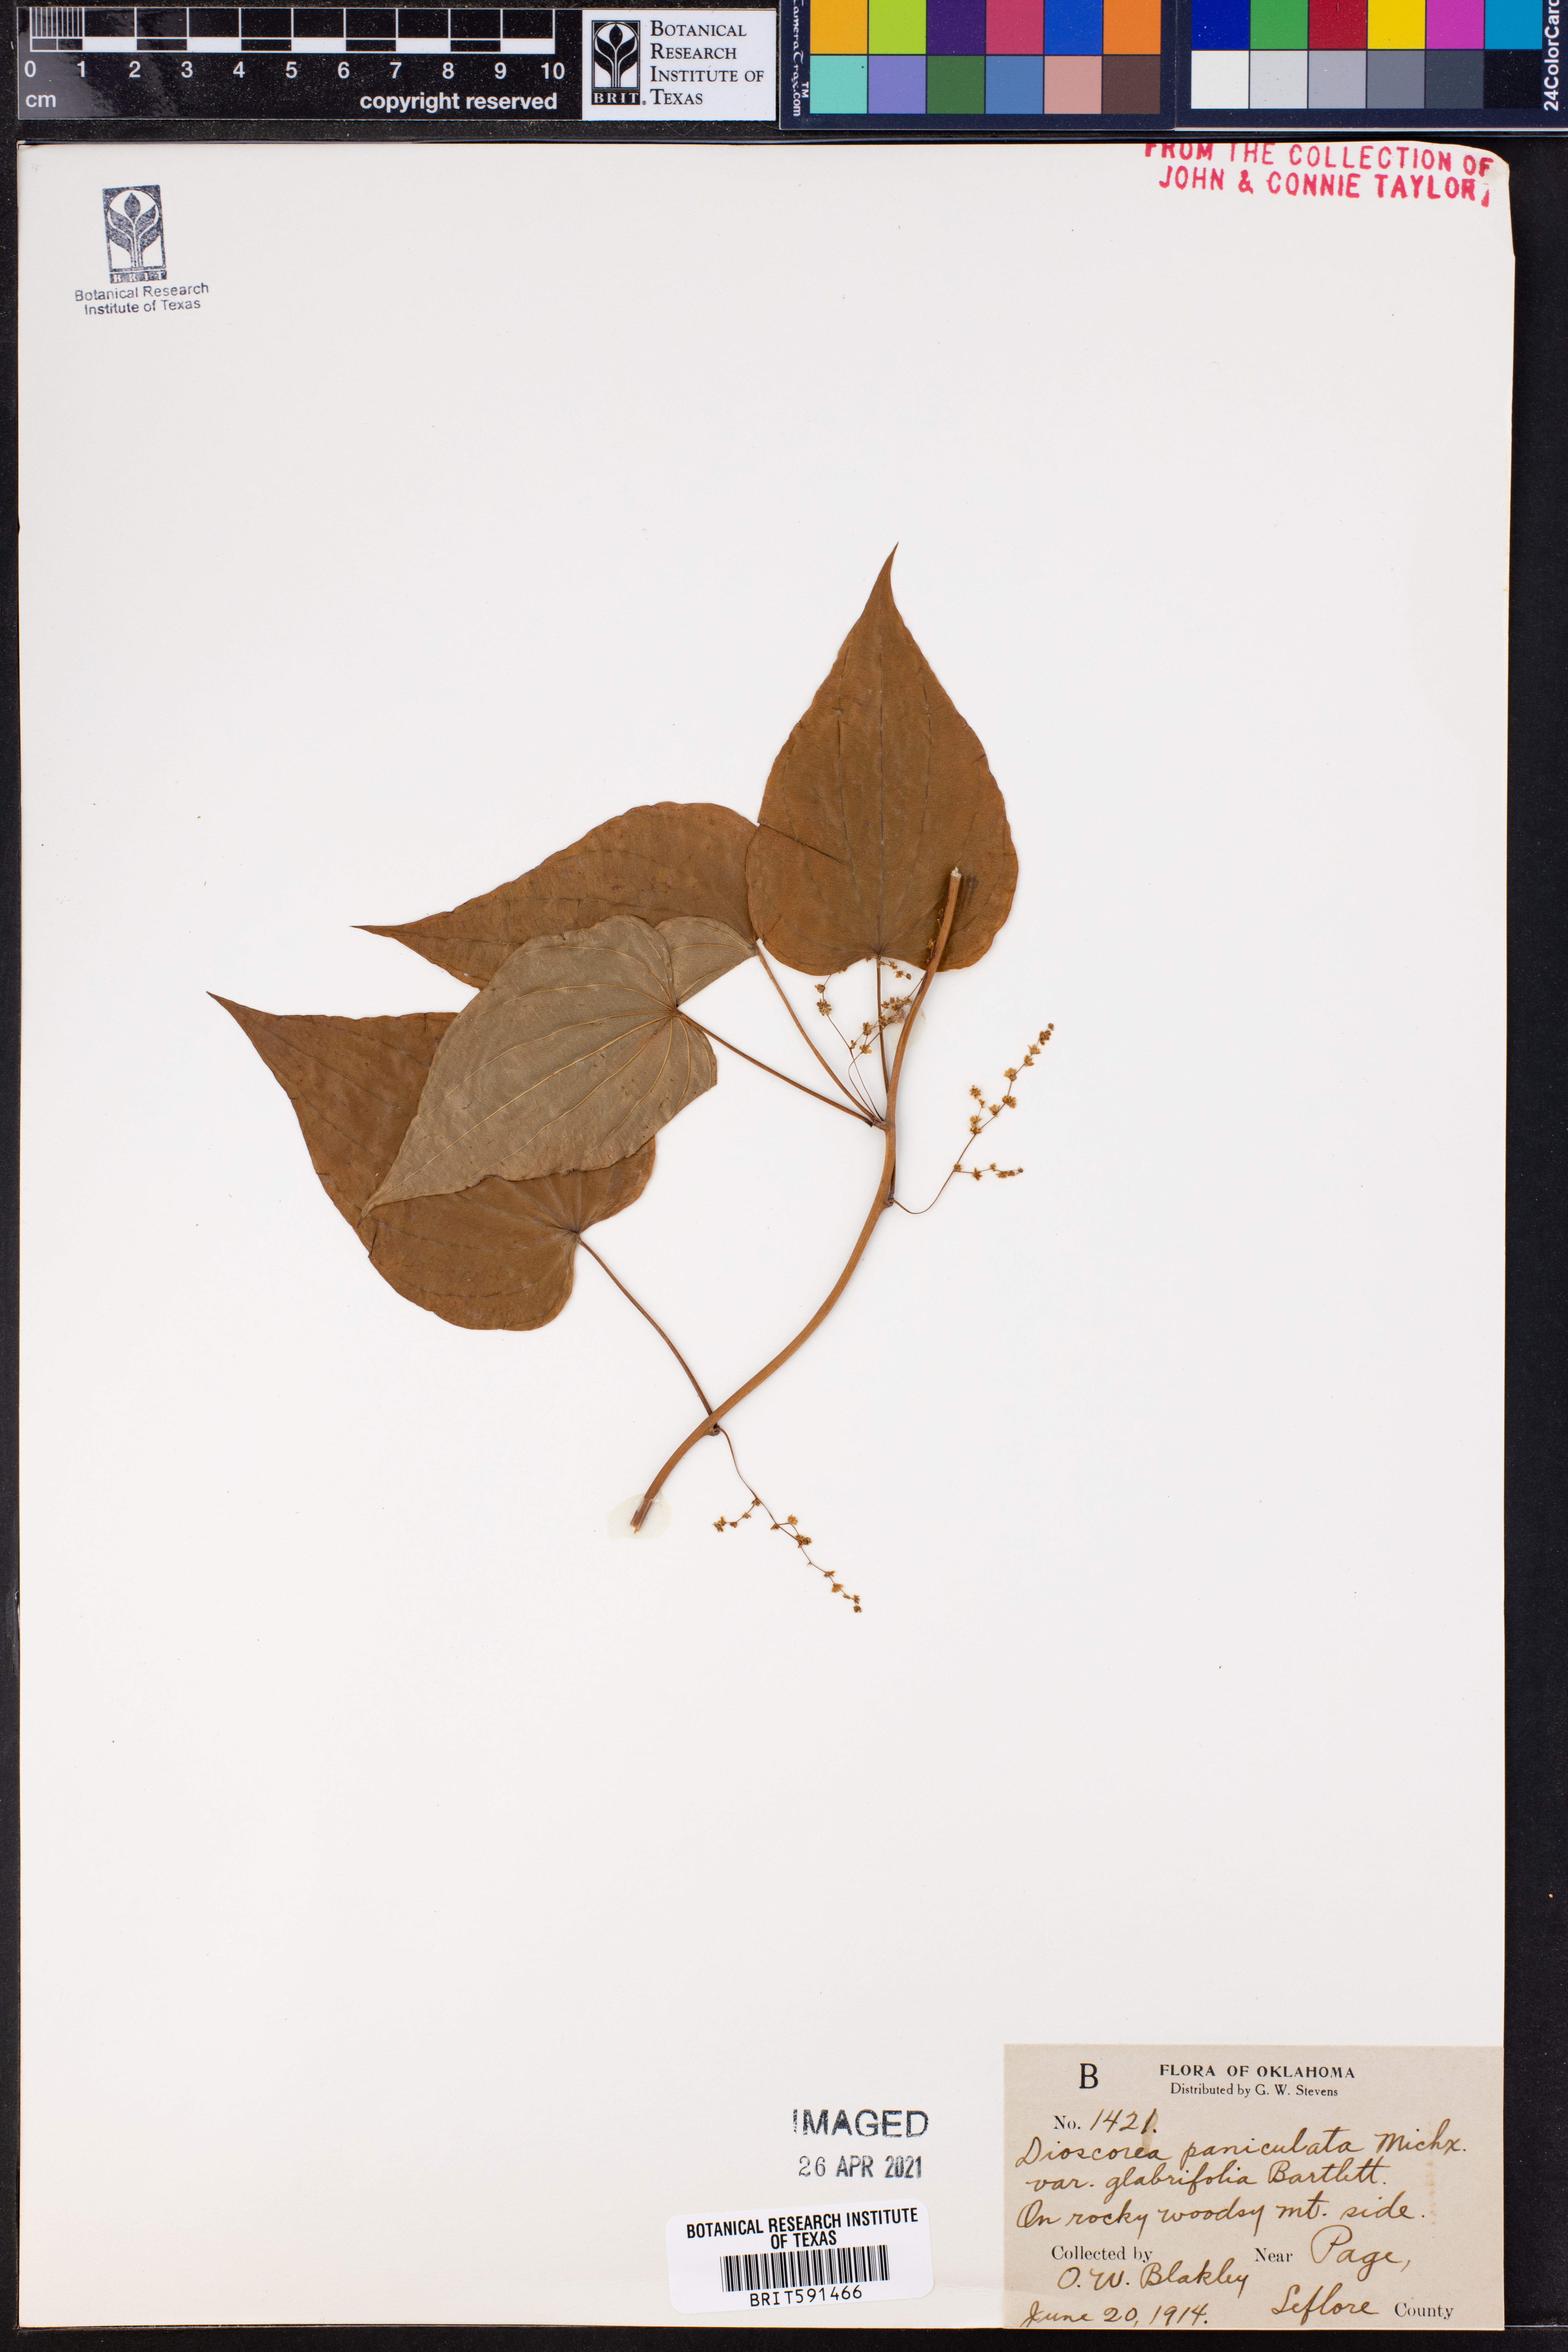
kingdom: Plantae
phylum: Tracheophyta
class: Liliopsida
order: Dioscoreales
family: Dioscoreaceae
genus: Dioscorea
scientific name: Dioscorea villosa
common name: Wild yam
